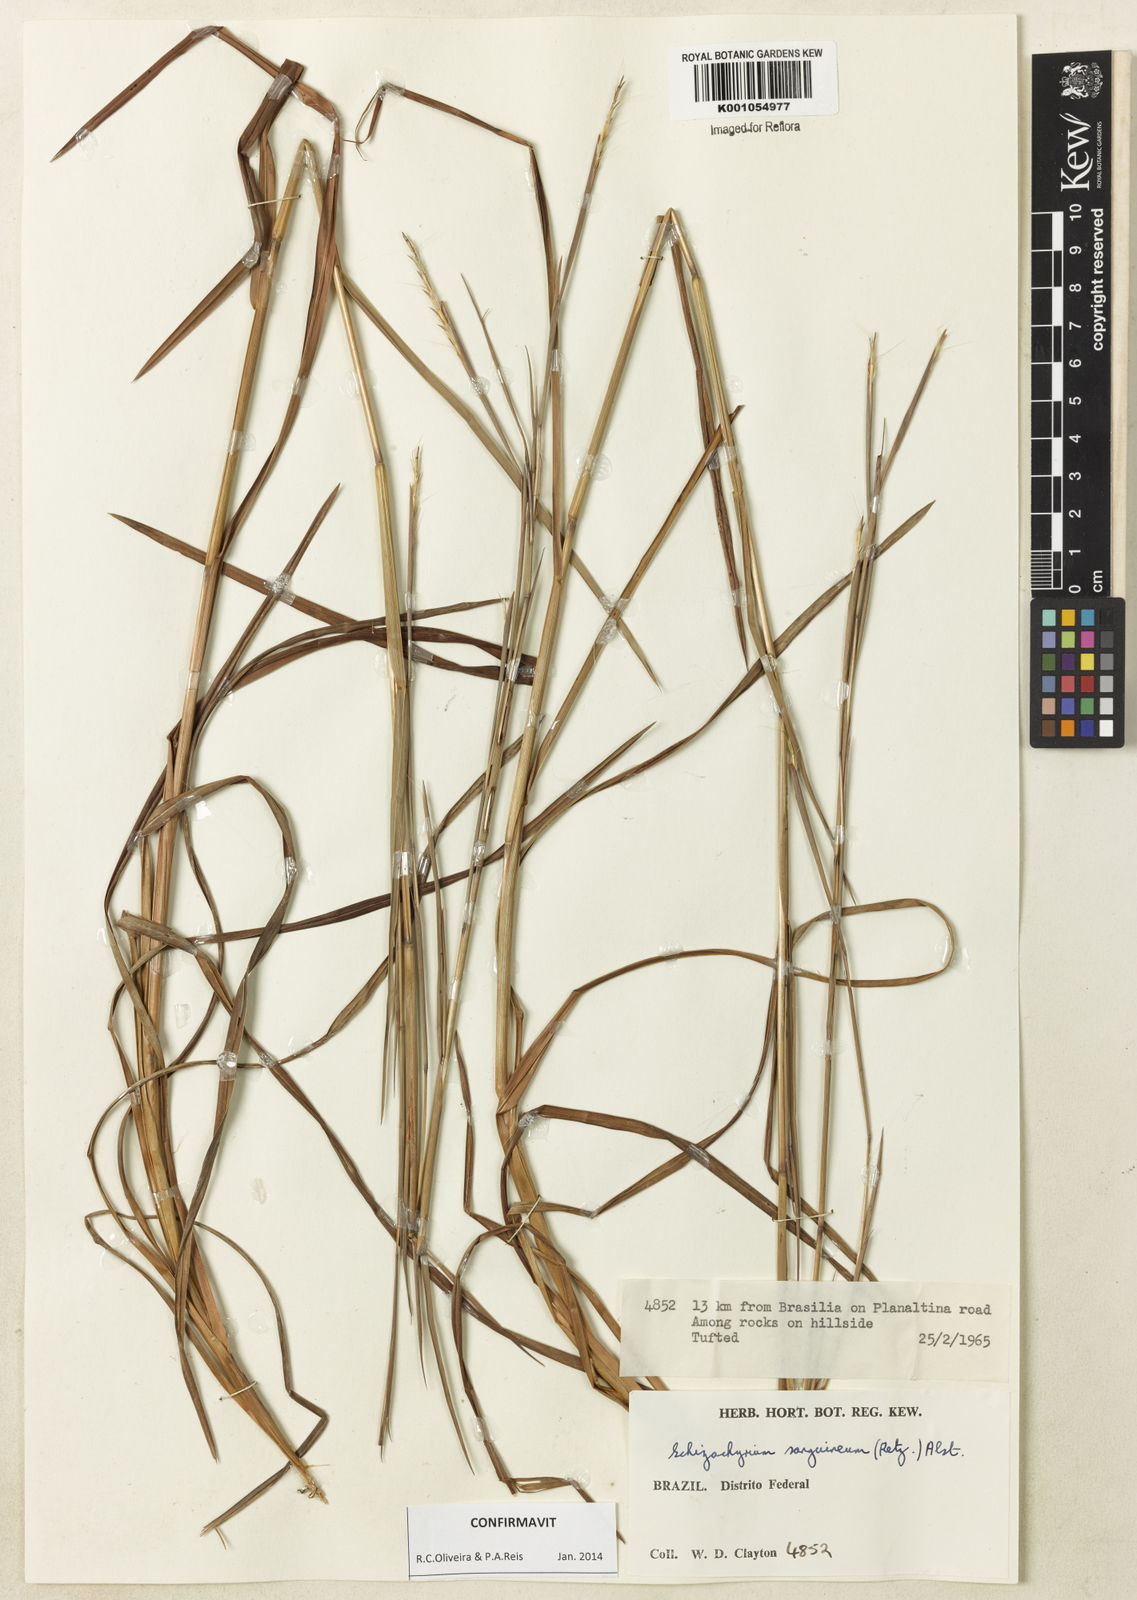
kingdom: Plantae
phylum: Tracheophyta
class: Liliopsida
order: Poales
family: Poaceae
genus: Schizachyrium
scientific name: Schizachyrium sanguineum
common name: Crimson bluestem
